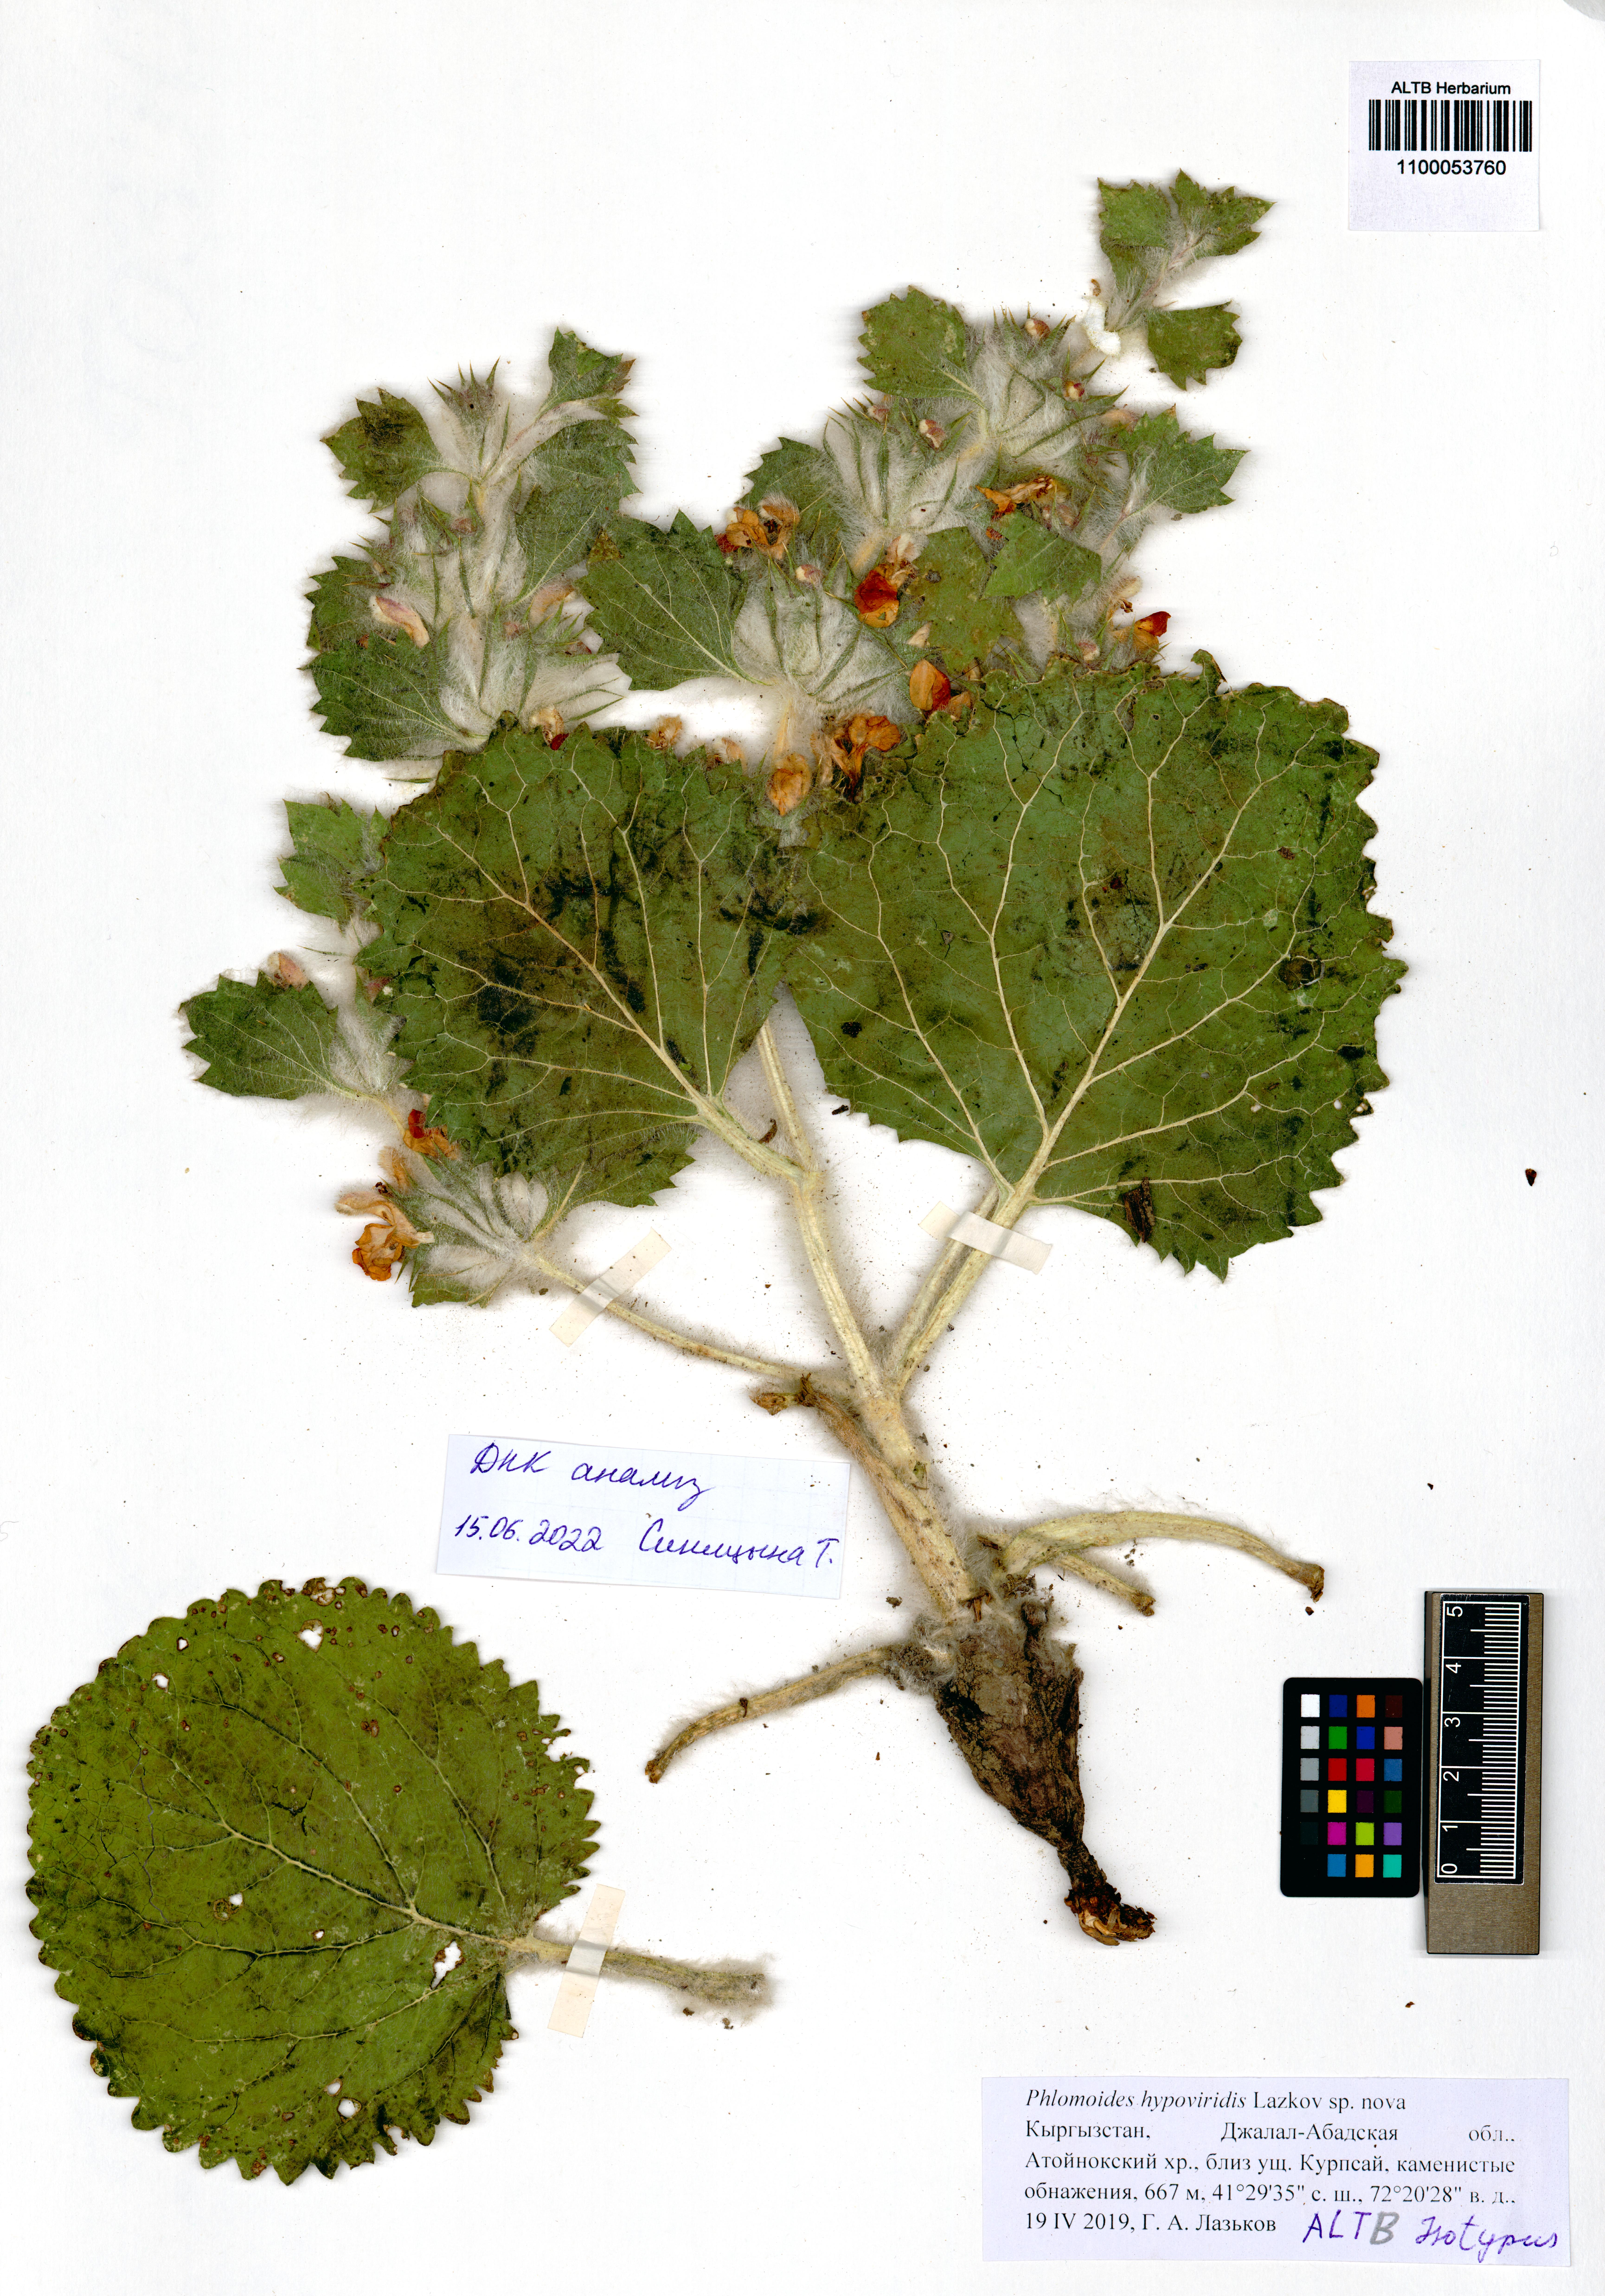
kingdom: Plantae
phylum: Tracheophyta
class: Magnoliopsida
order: Lamiales
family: Lamiaceae
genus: Phlomoides
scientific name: Phlomoides hypoviridis
